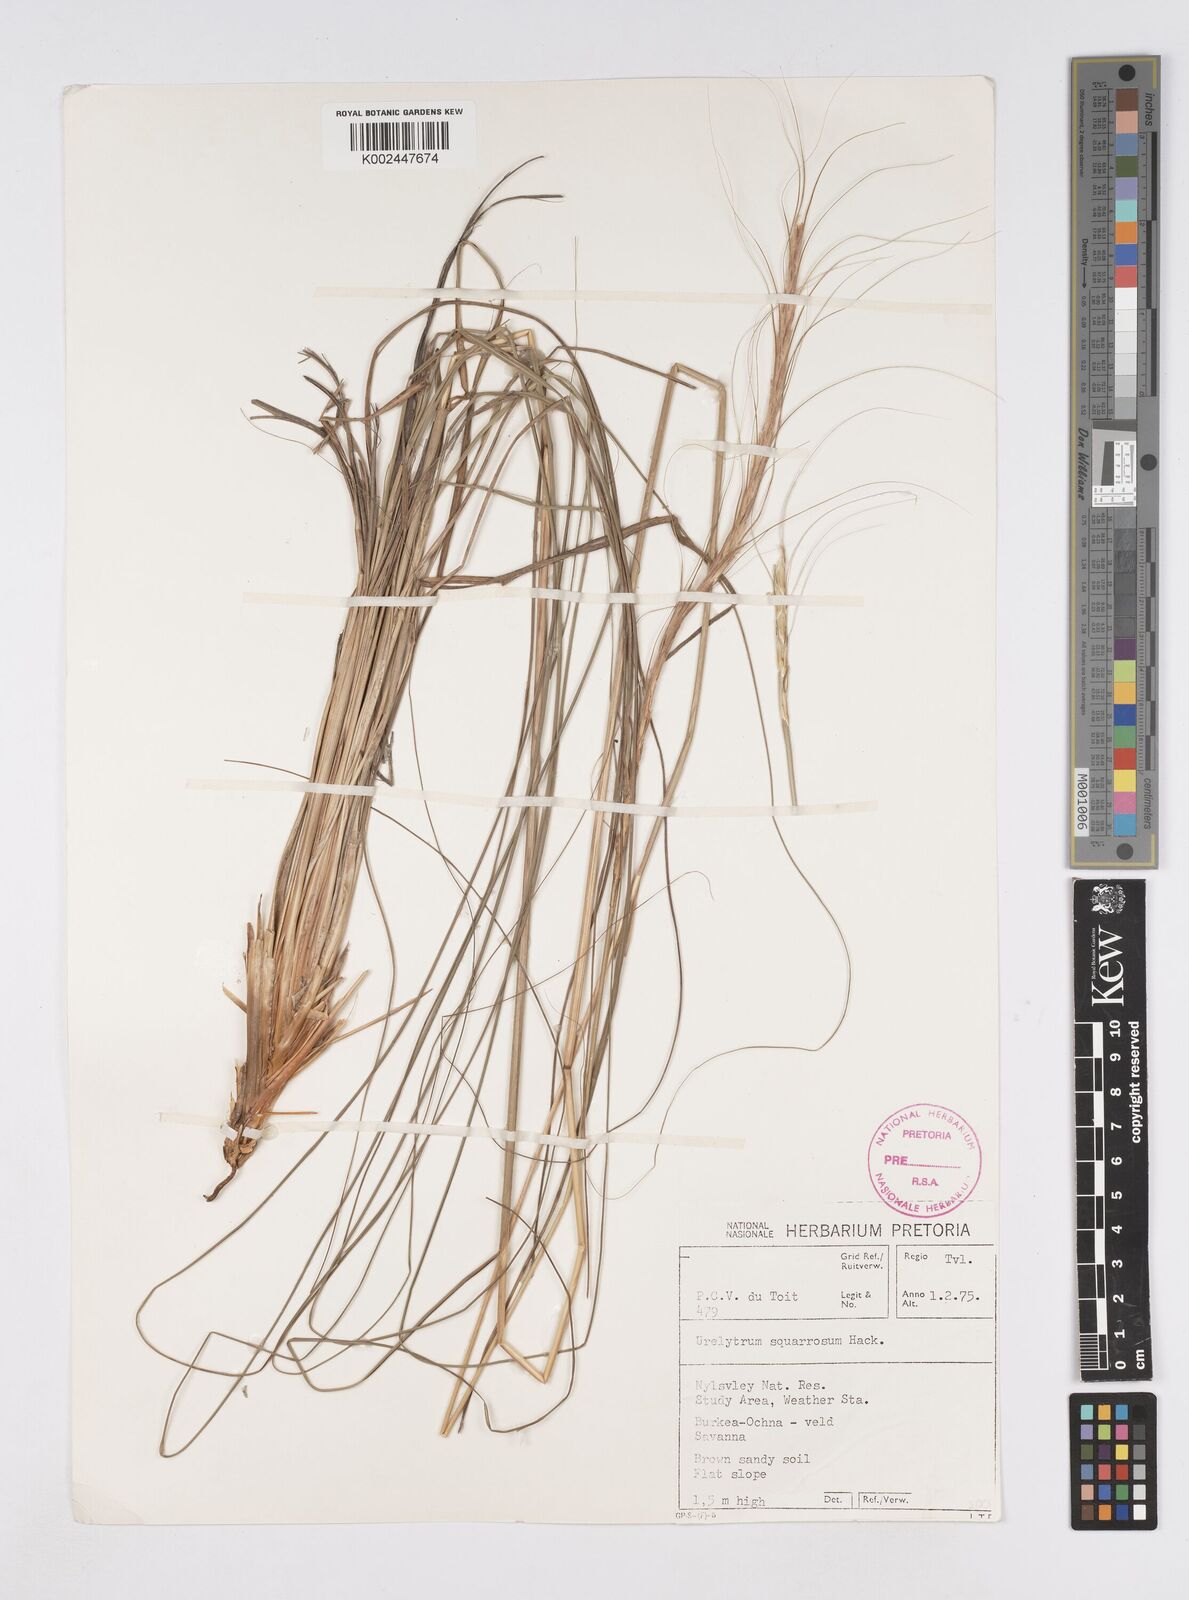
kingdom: Plantae
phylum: Tracheophyta
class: Liliopsida
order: Poales
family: Poaceae
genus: Urelytrum
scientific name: Urelytrum agropyroides
